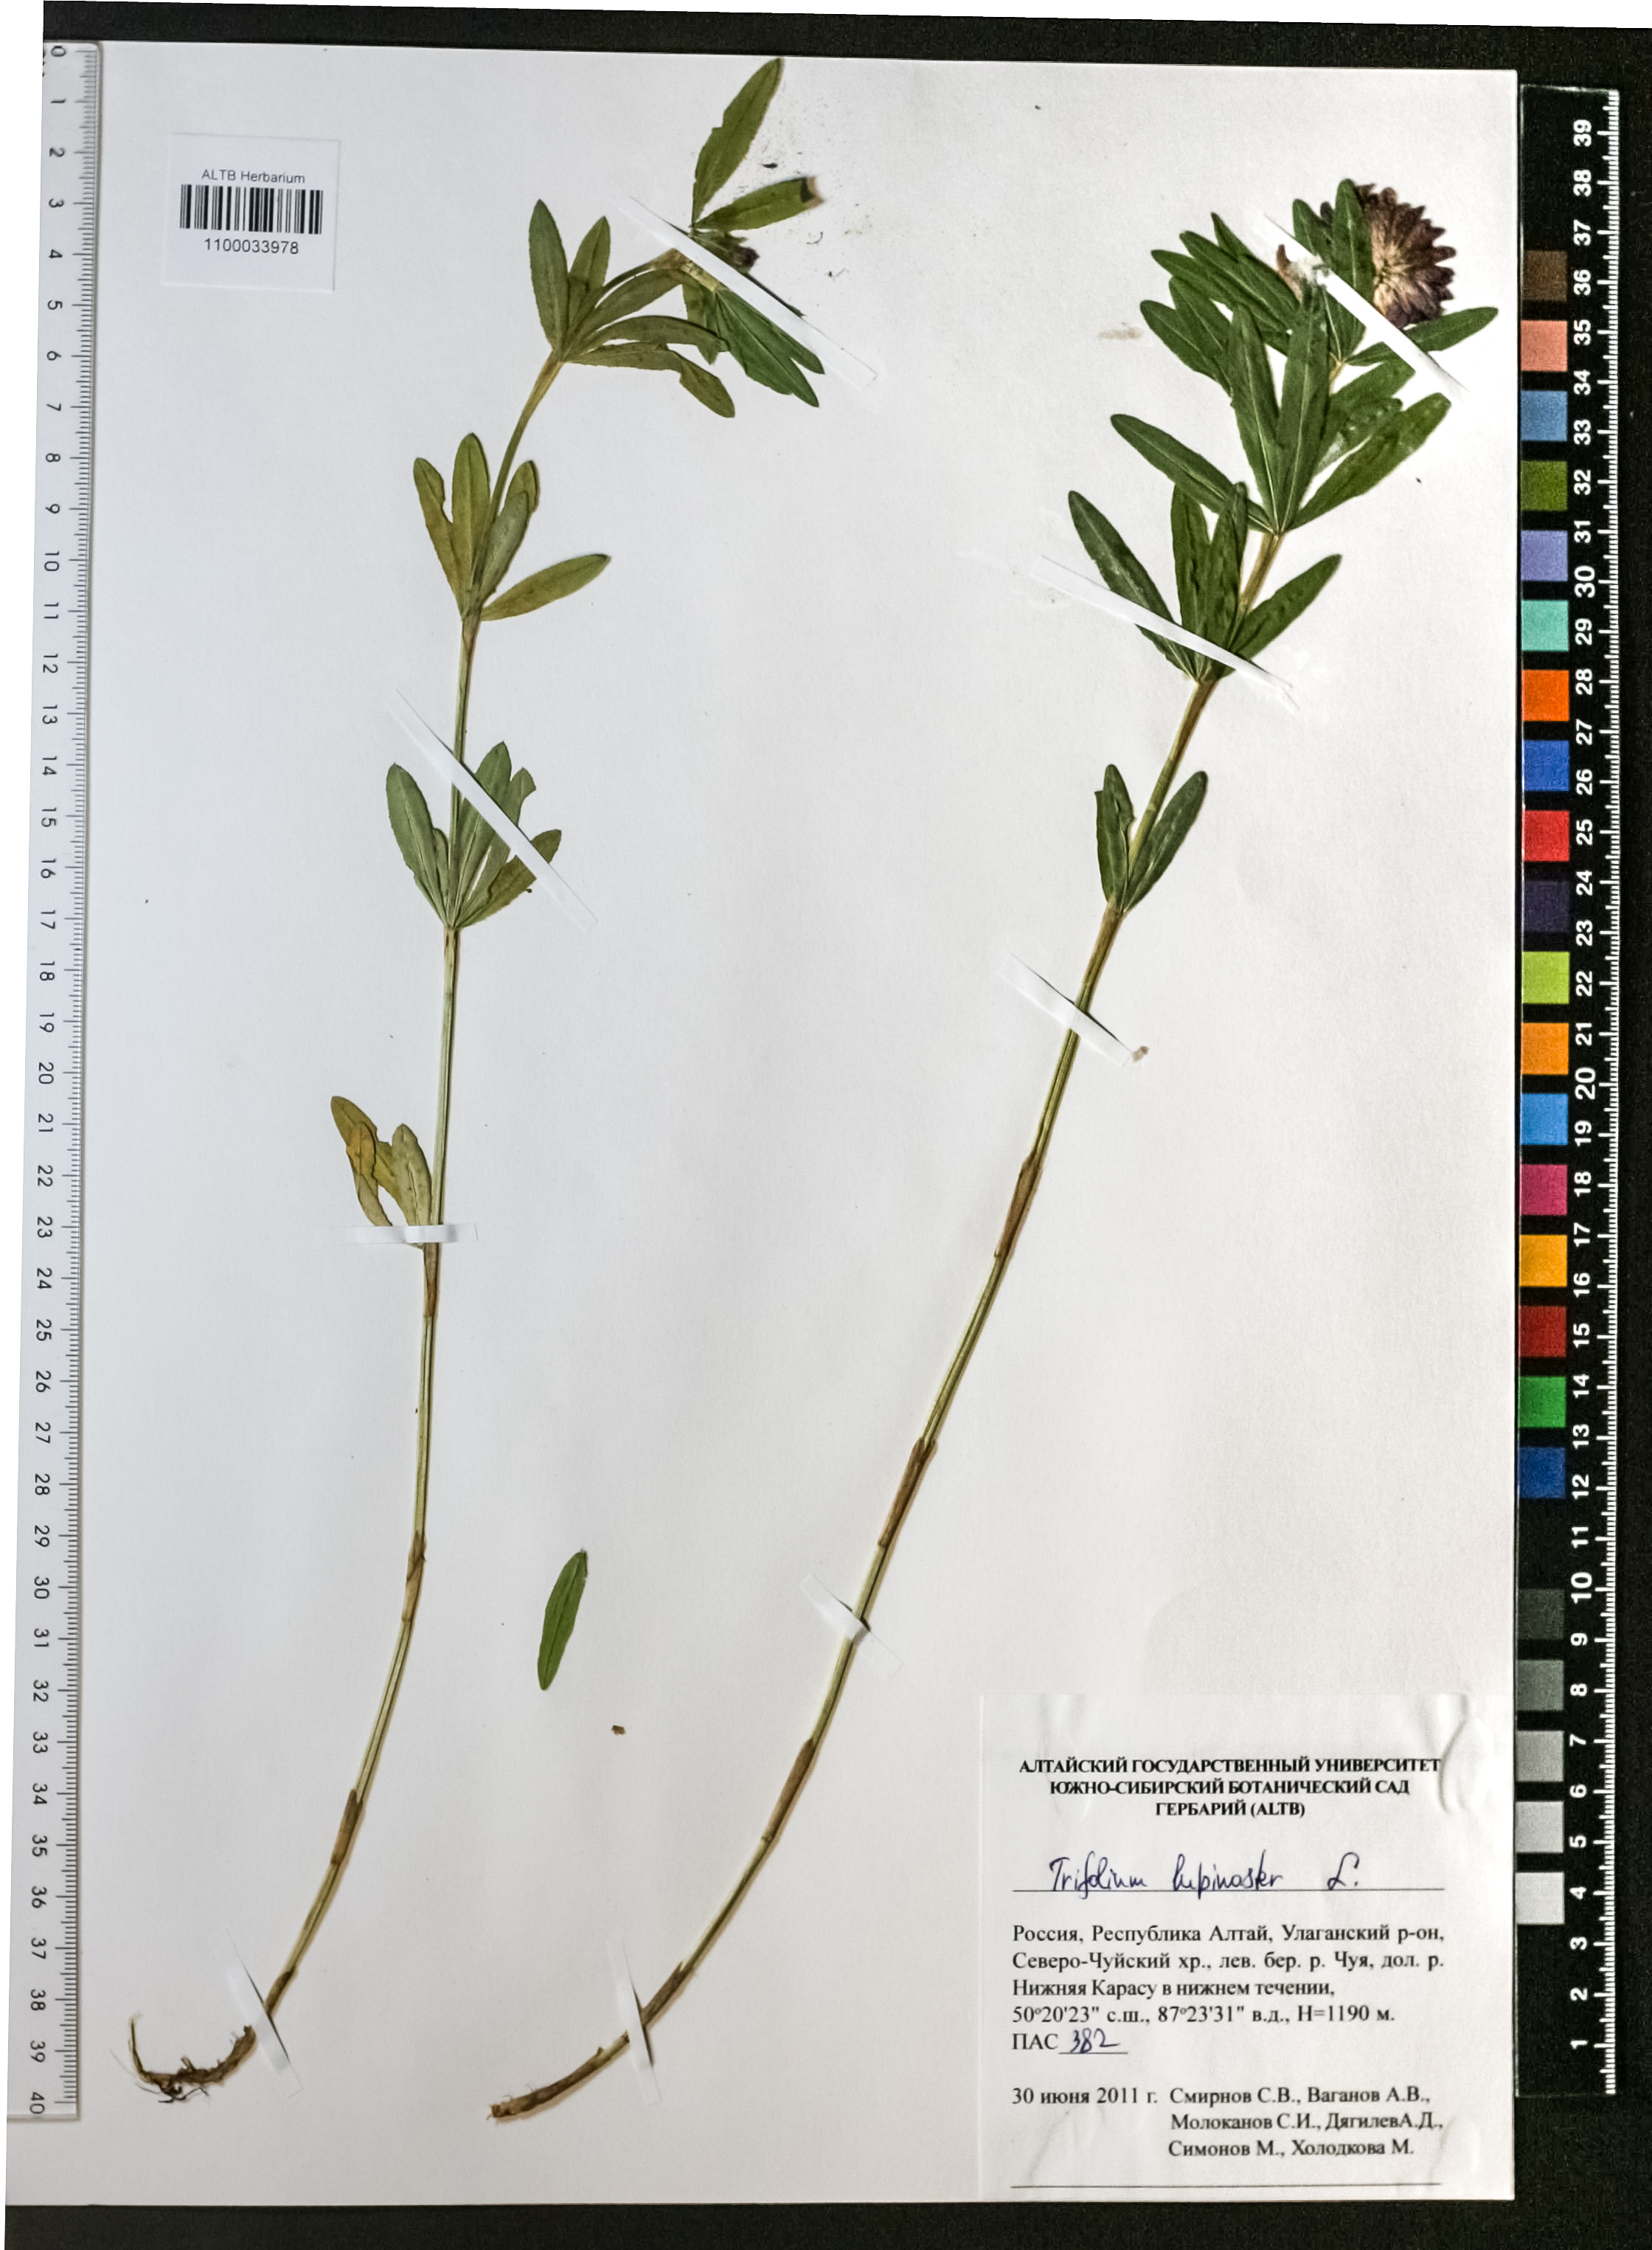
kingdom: Plantae
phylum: Tracheophyta
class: Magnoliopsida
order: Fabales
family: Fabaceae
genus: Trifolium
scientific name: Trifolium lupinaster
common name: Lupine clover
